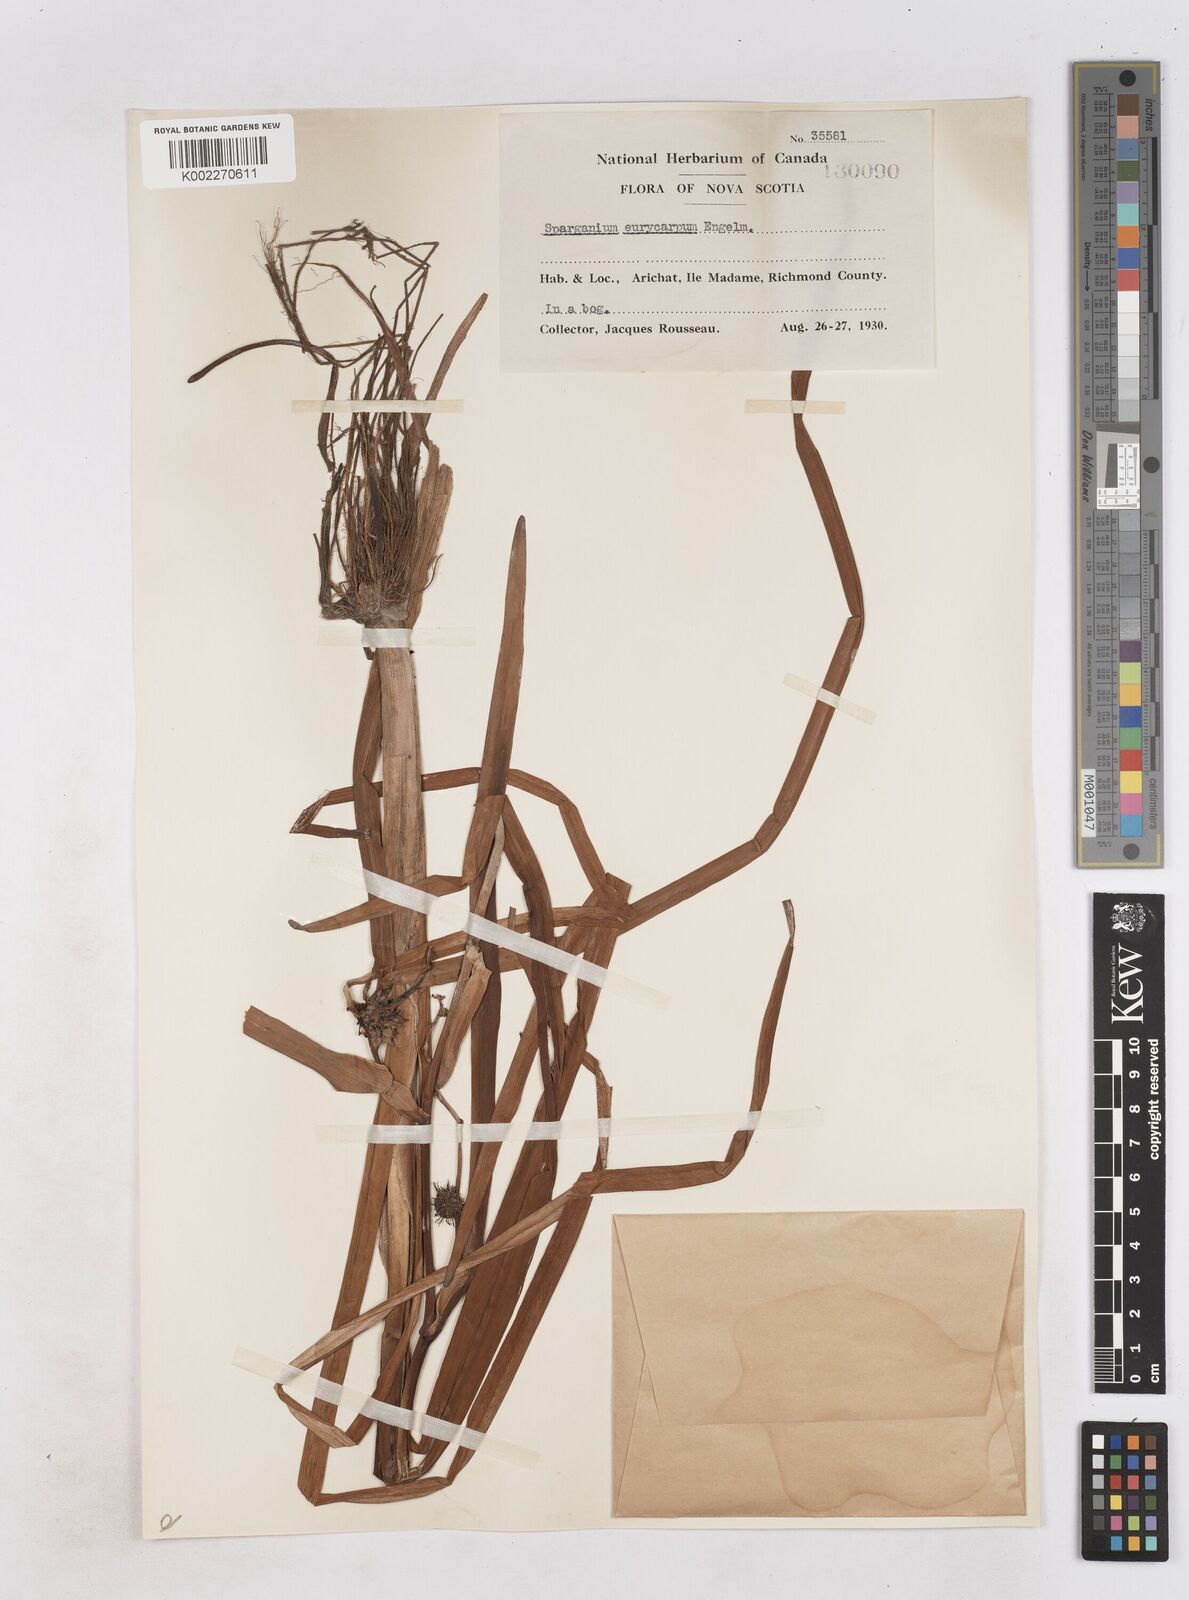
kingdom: Plantae
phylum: Tracheophyta
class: Liliopsida
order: Poales
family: Typhaceae
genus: Sparganium
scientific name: Sparganium eurycarpum
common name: Broad-fruited burreed
